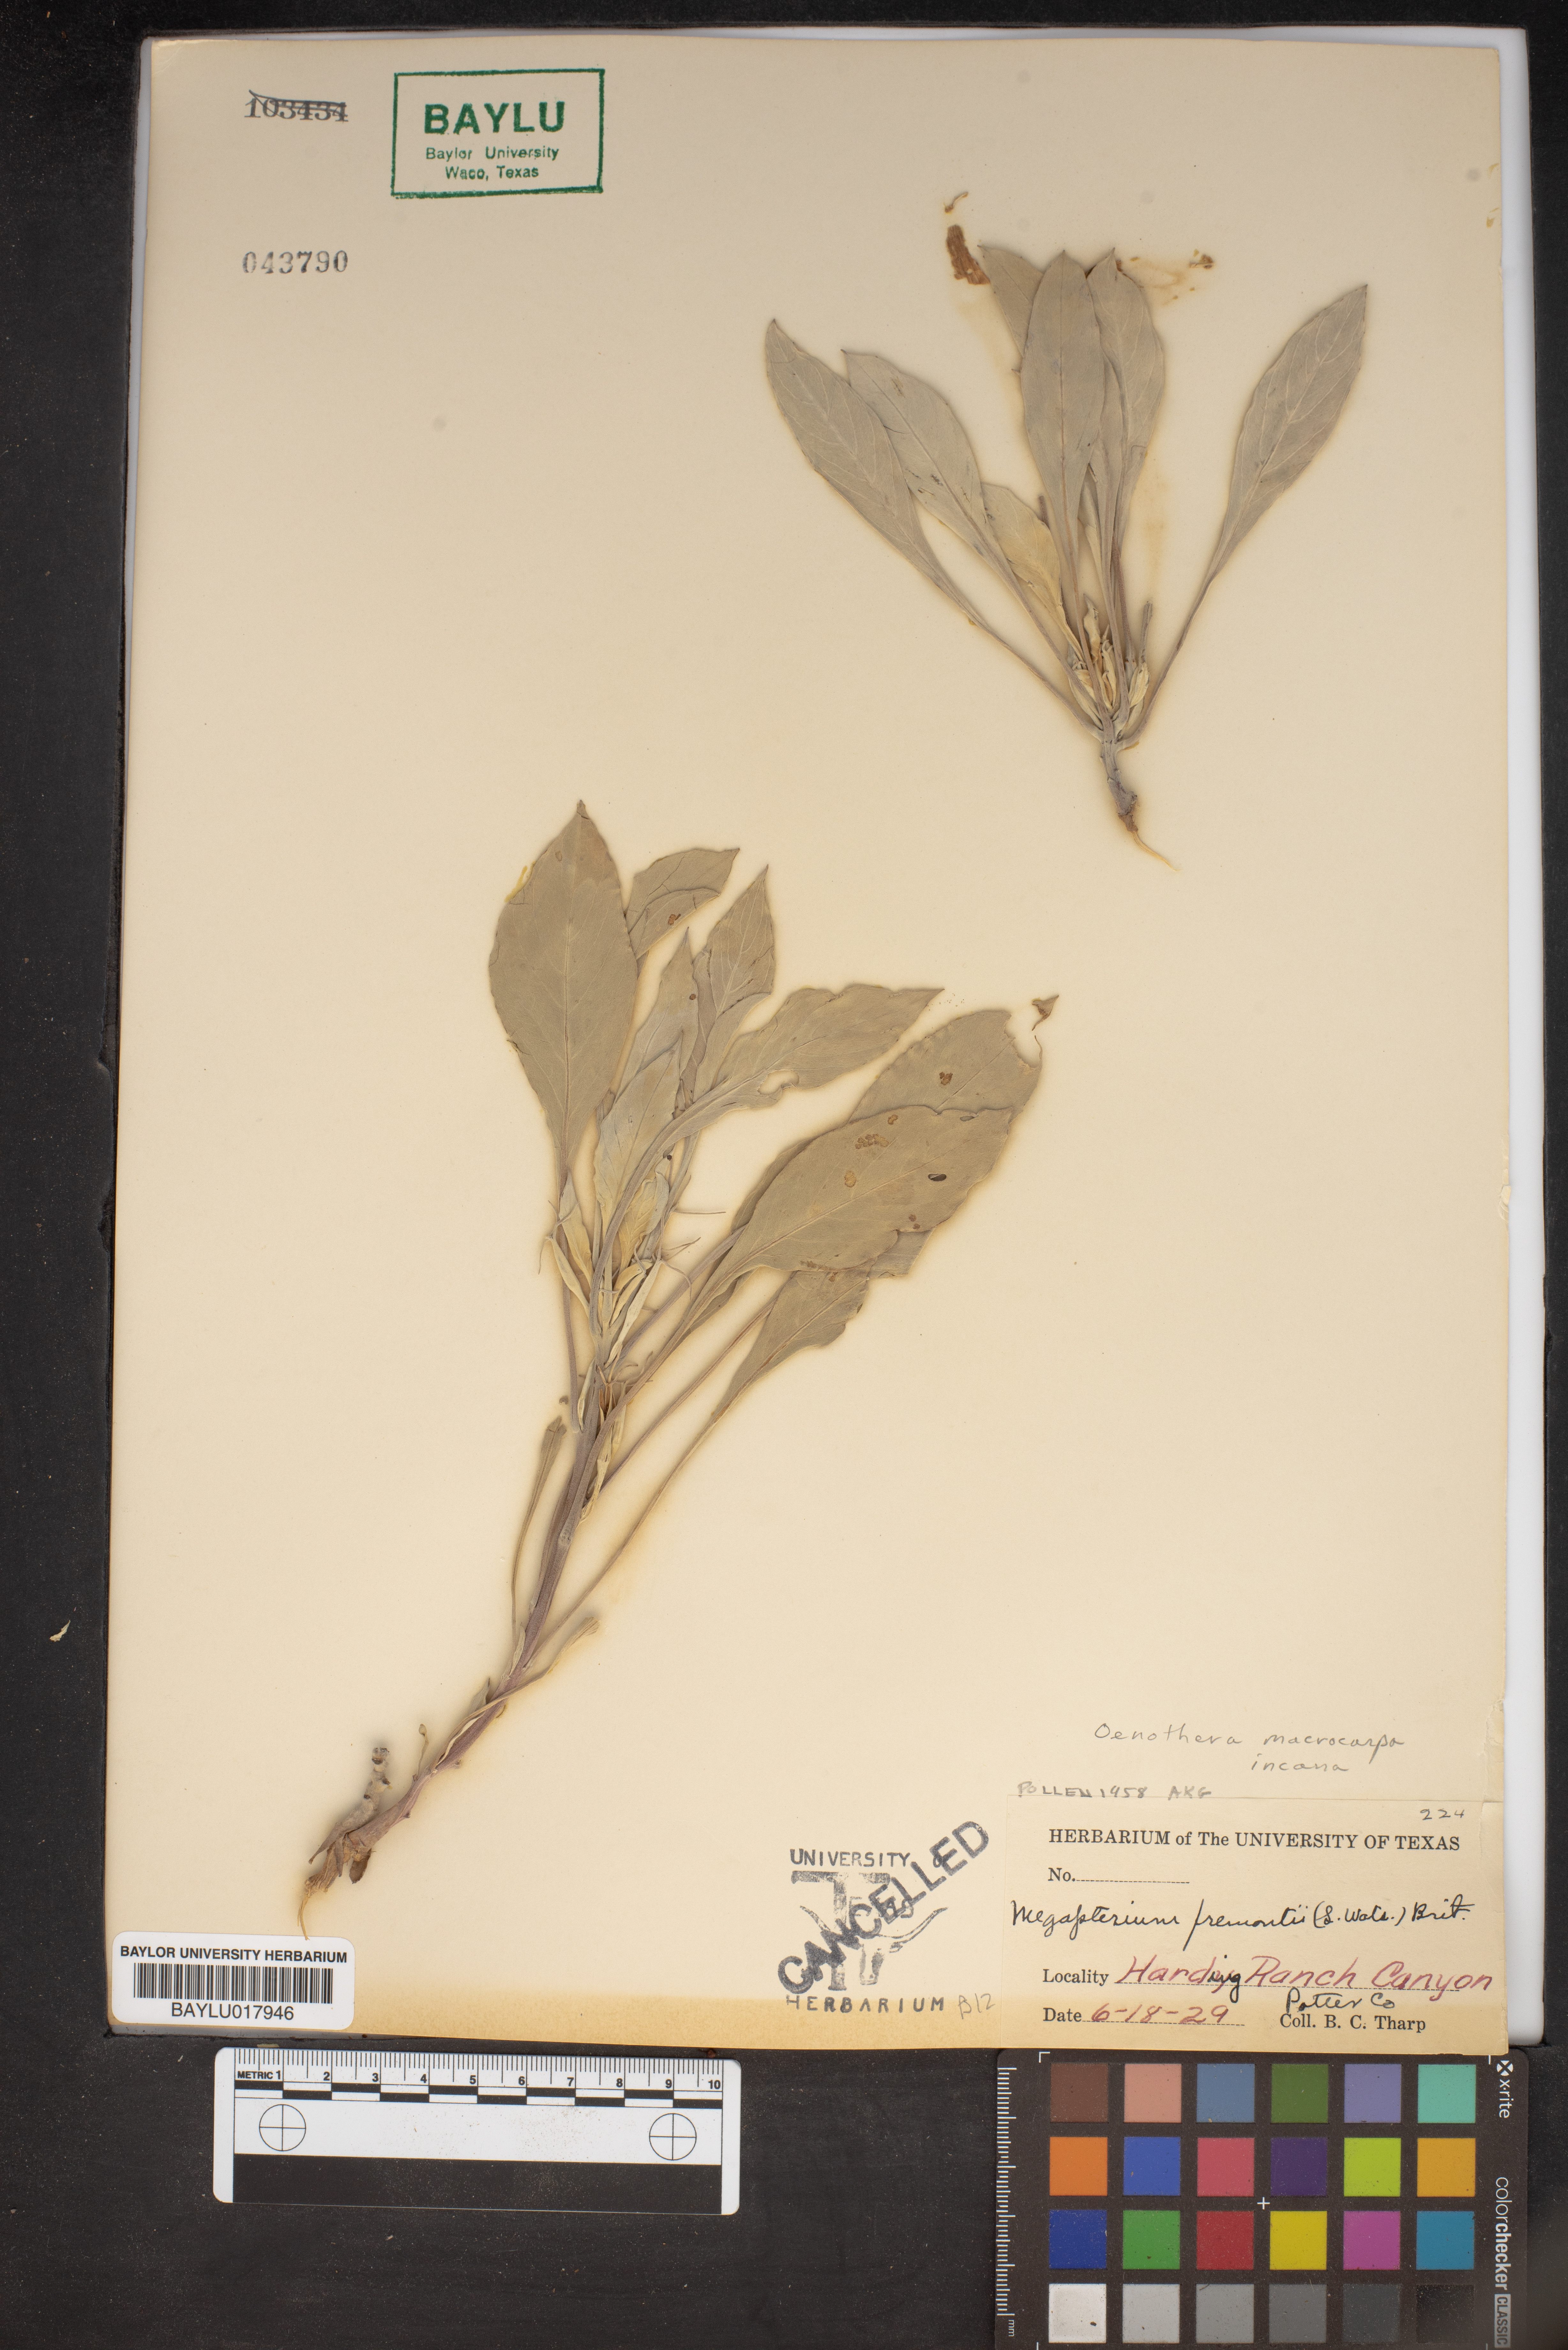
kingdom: Plantae
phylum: Tracheophyta
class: Magnoliopsida
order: Myrtales
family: Onagraceae
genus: Oenothera
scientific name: Oenothera macrocarpa
